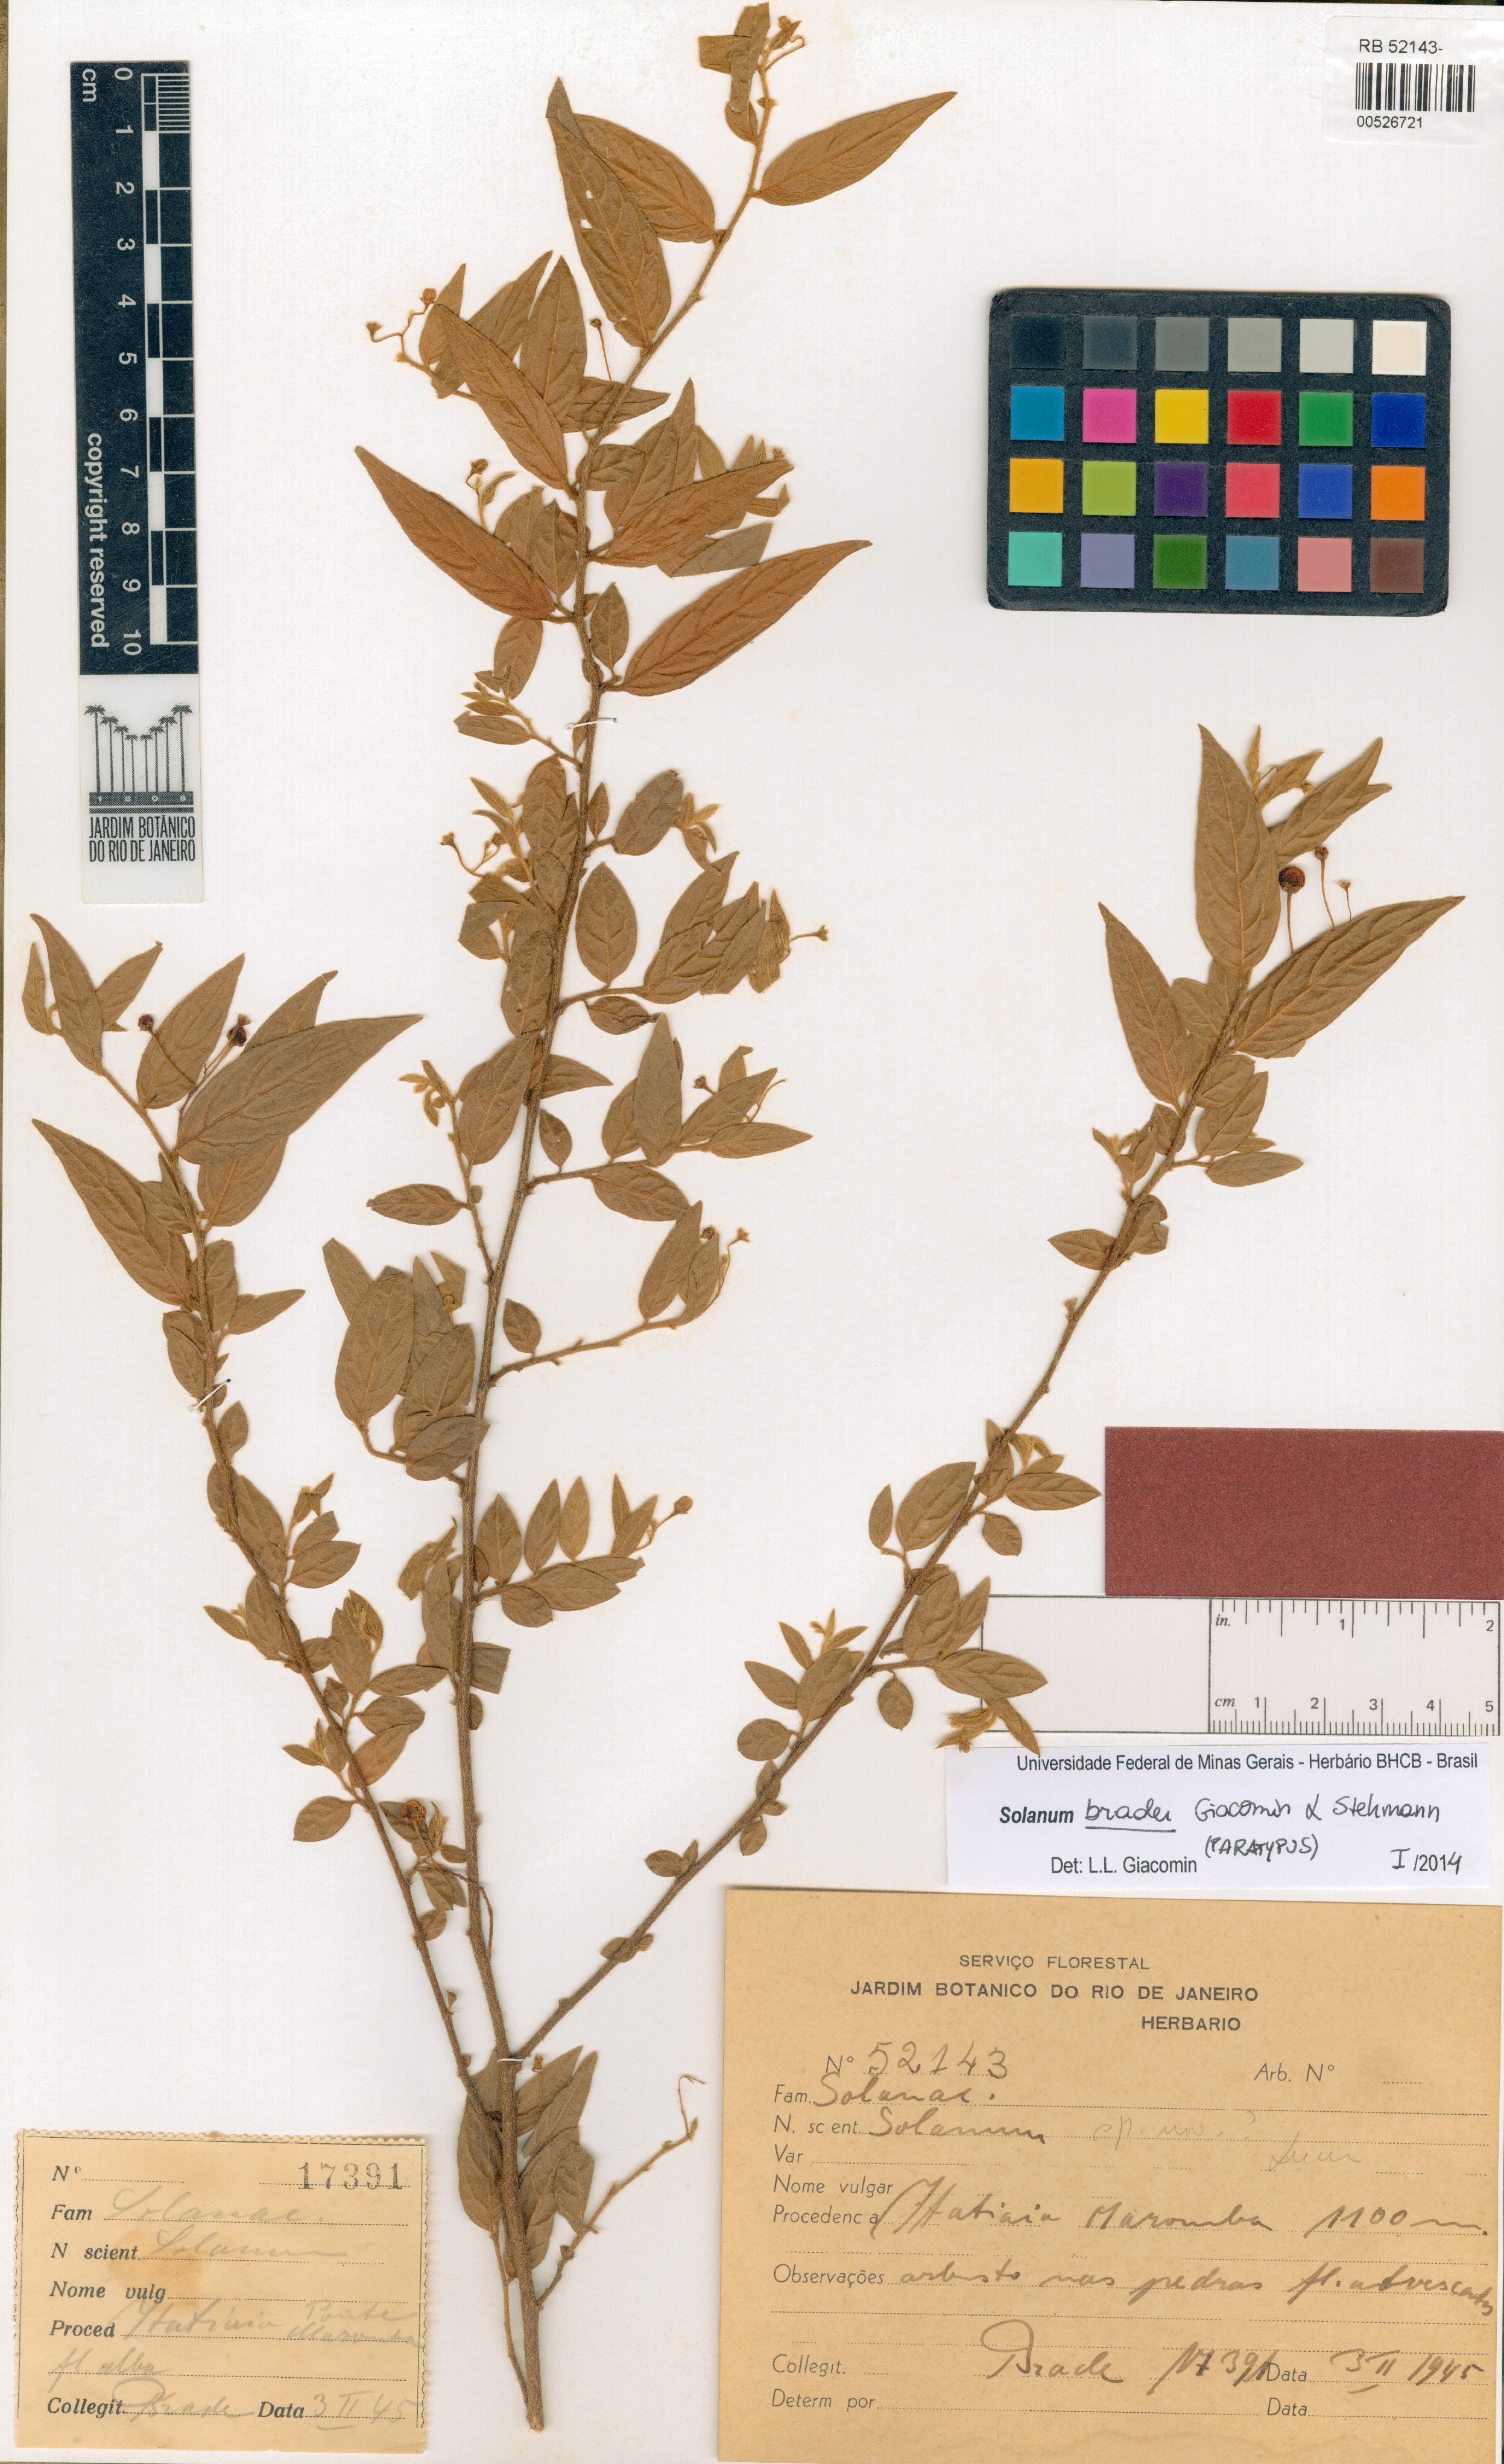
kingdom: Plantae
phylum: Tracheophyta
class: Magnoliopsida
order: Solanales
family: Solanaceae
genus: Solanum
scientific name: Solanum bradei
